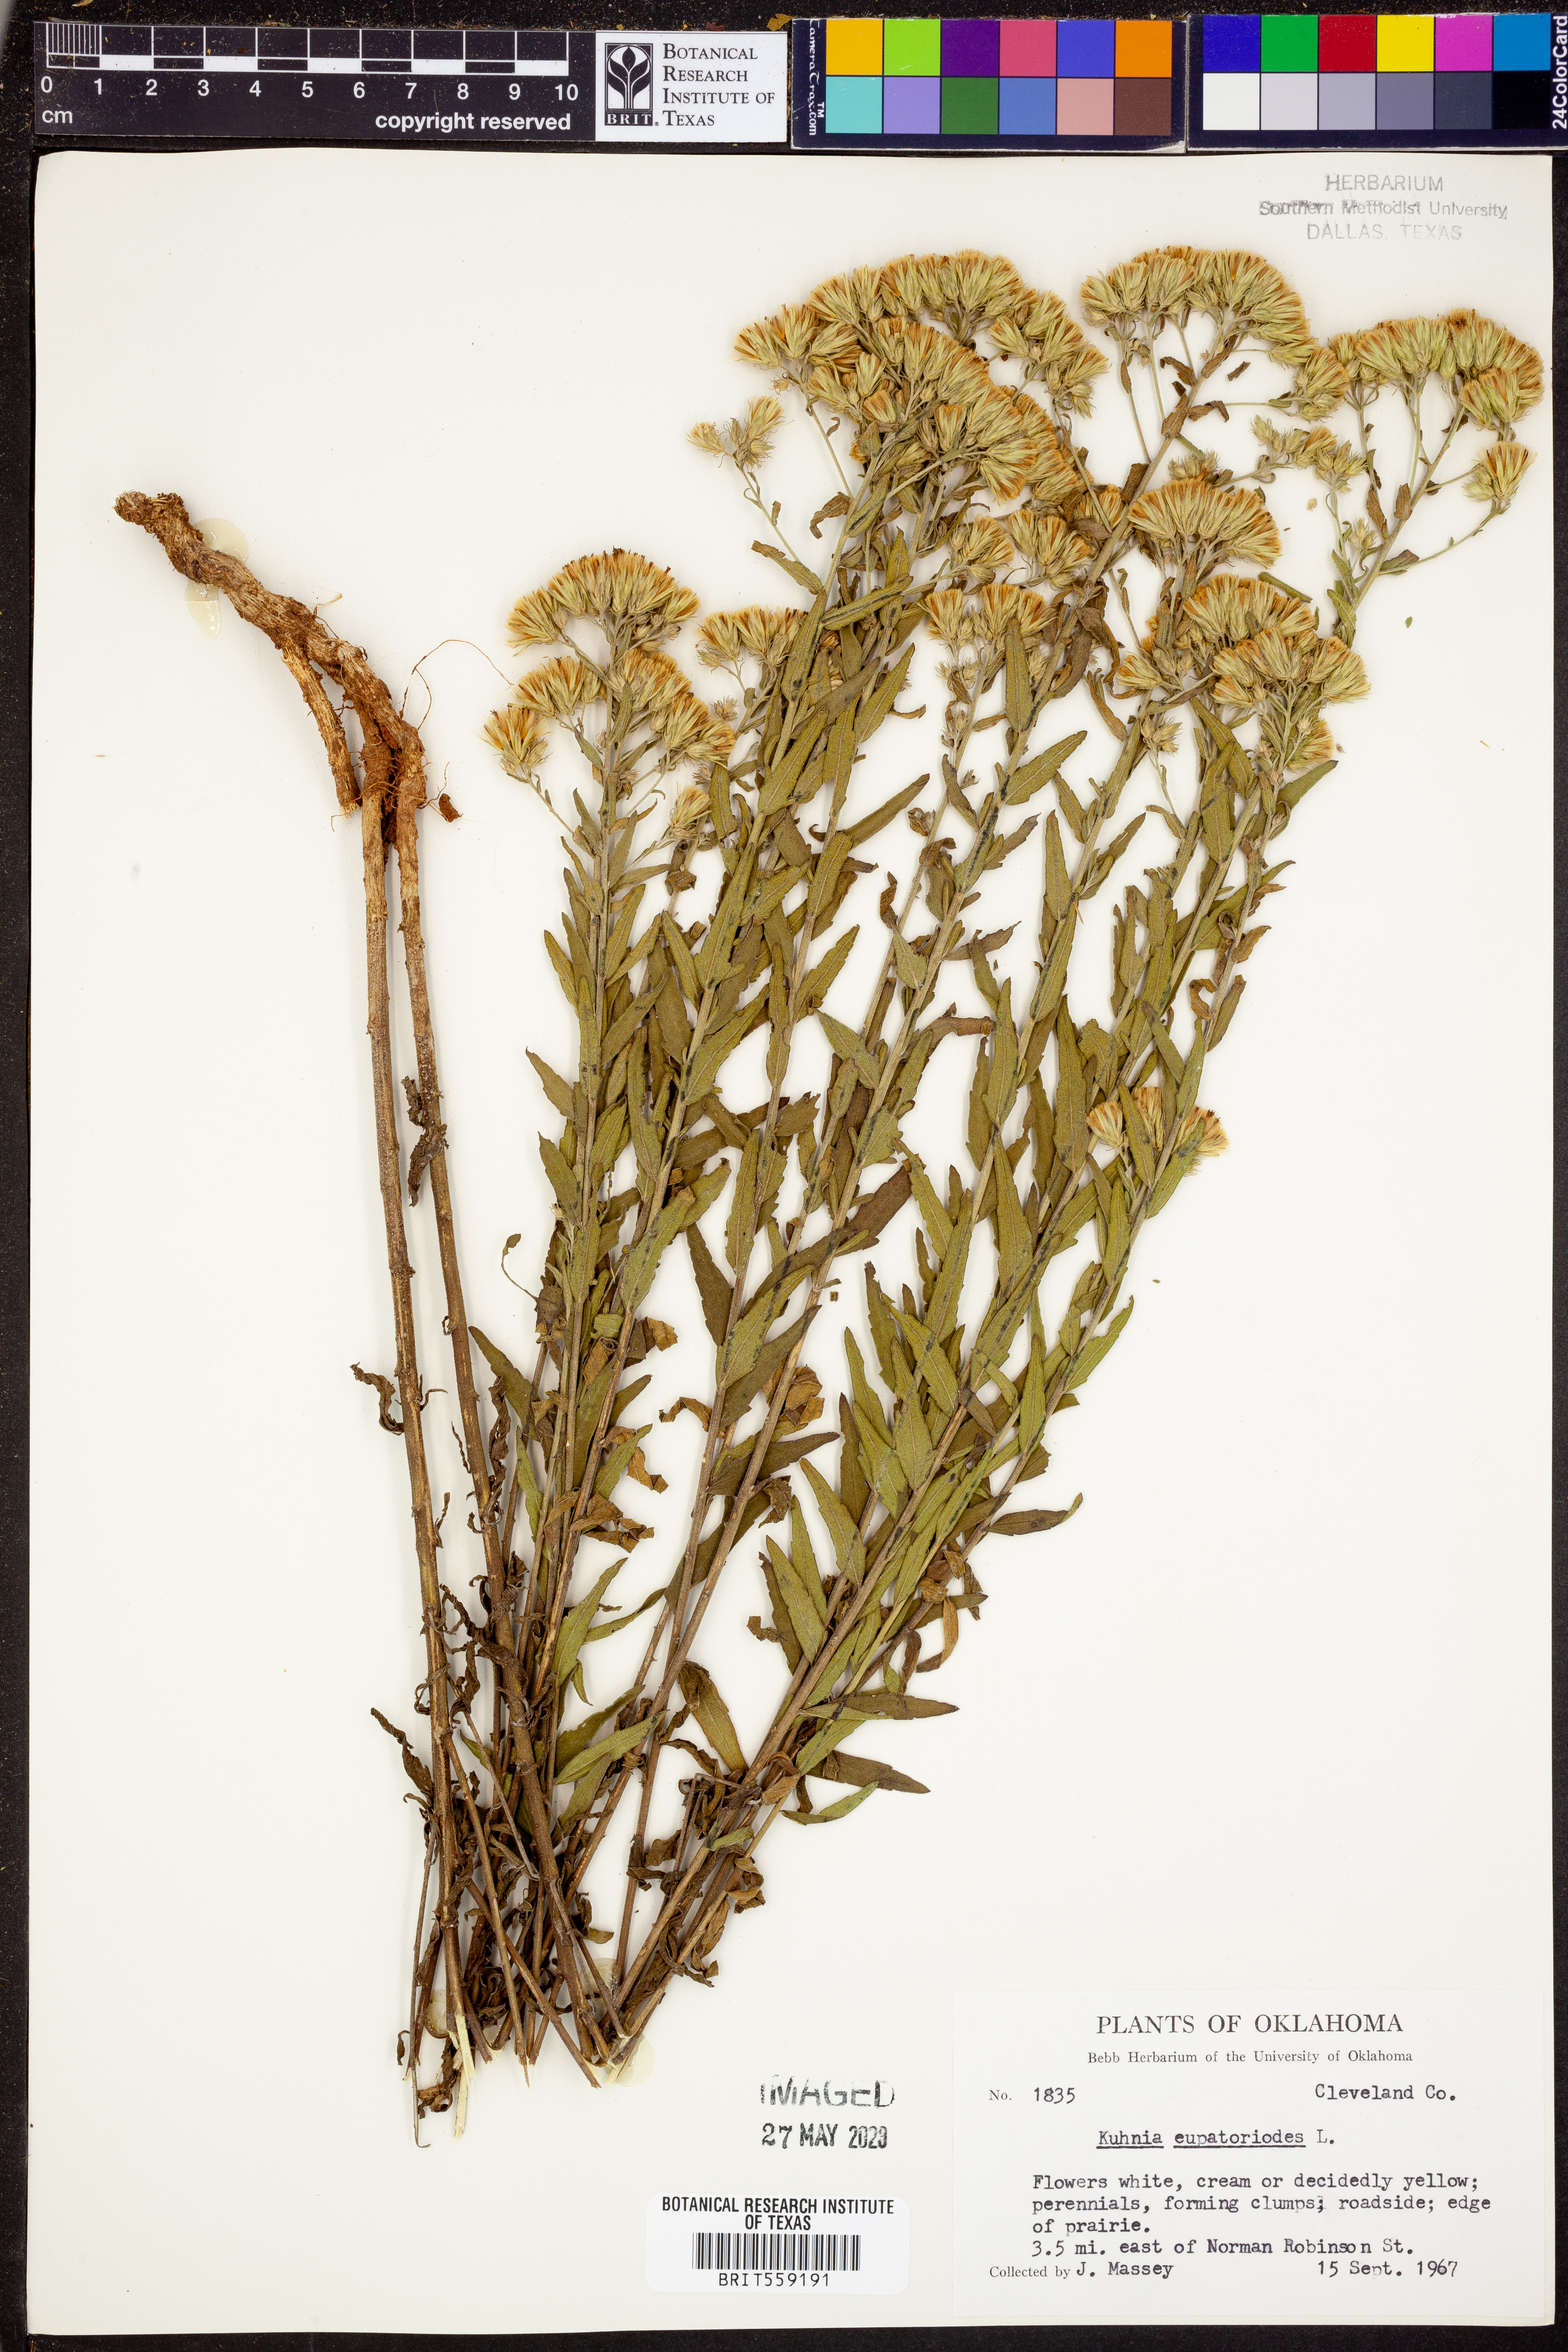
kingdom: Plantae
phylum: Tracheophyta
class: Magnoliopsida
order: Asterales
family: Asteraceae
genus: Brickellia
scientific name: Brickellia eupatorioides
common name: False boneset
